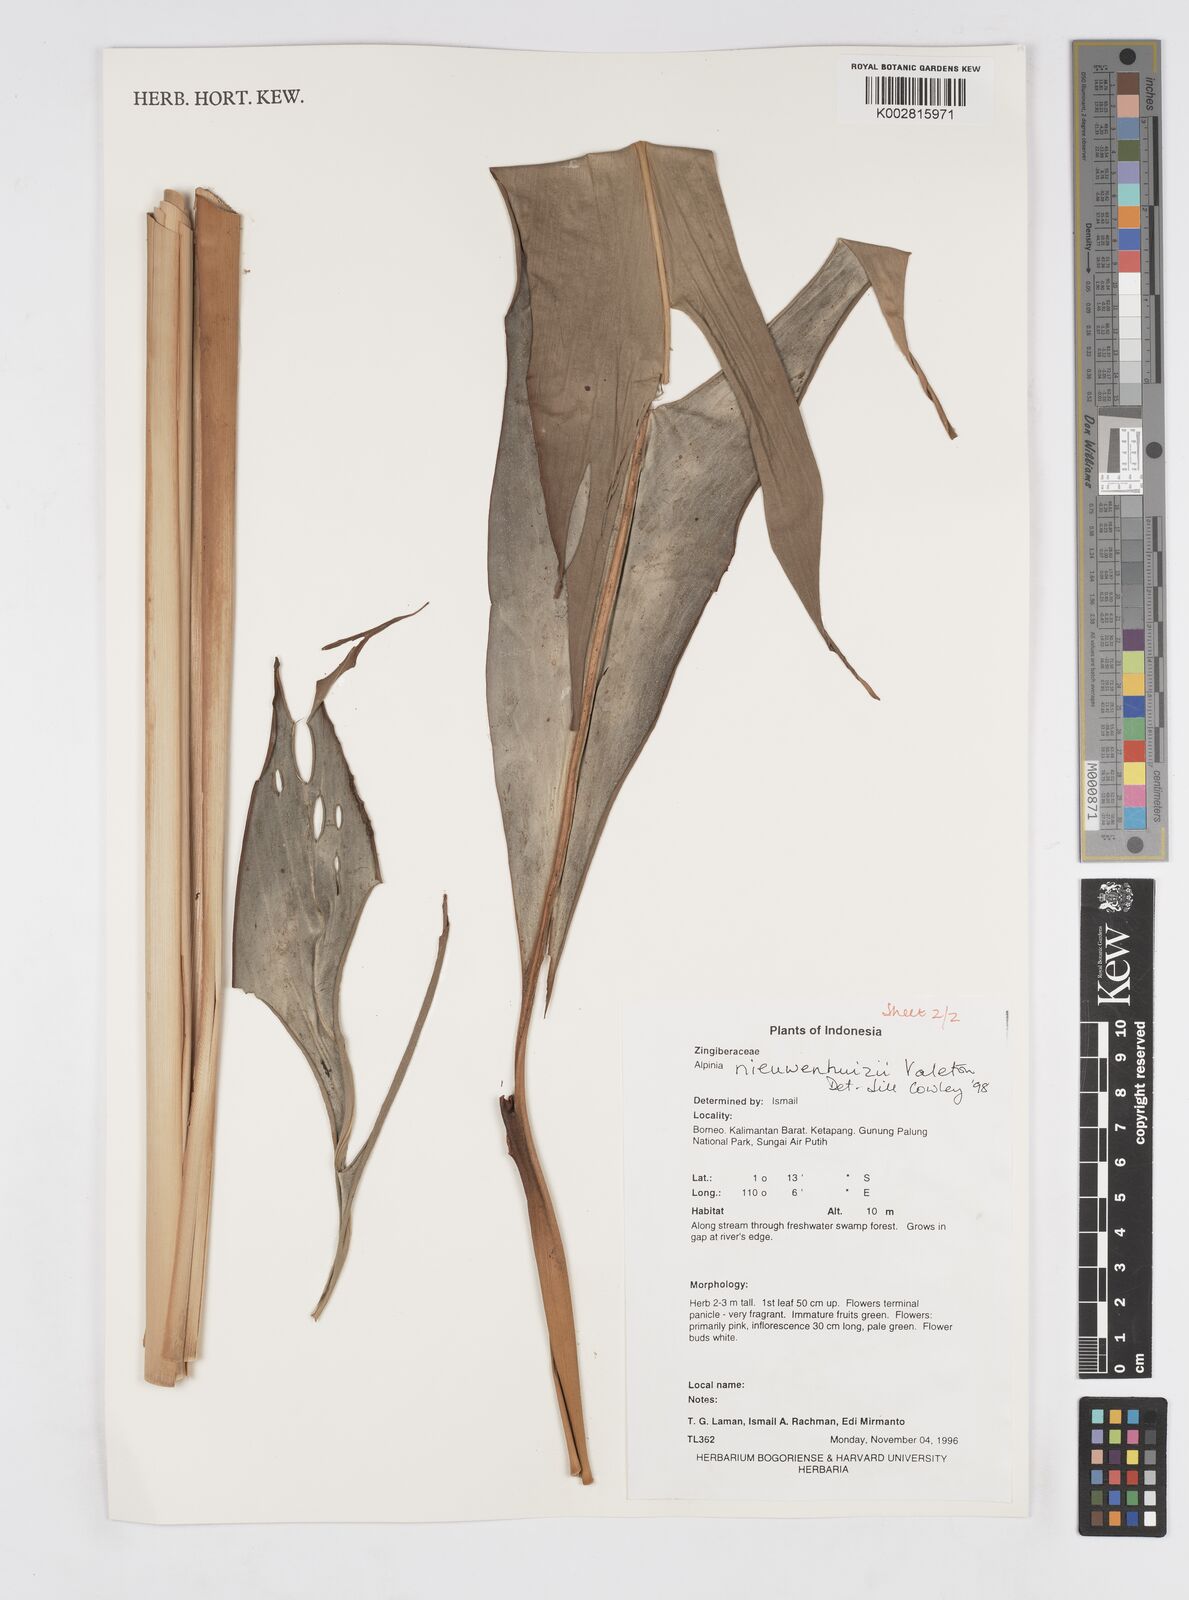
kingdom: Plantae
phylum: Tracheophyta
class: Liliopsida
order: Zingiberales
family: Zingiberaceae
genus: Alpinia
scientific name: Alpinia nieuwenhuizii
